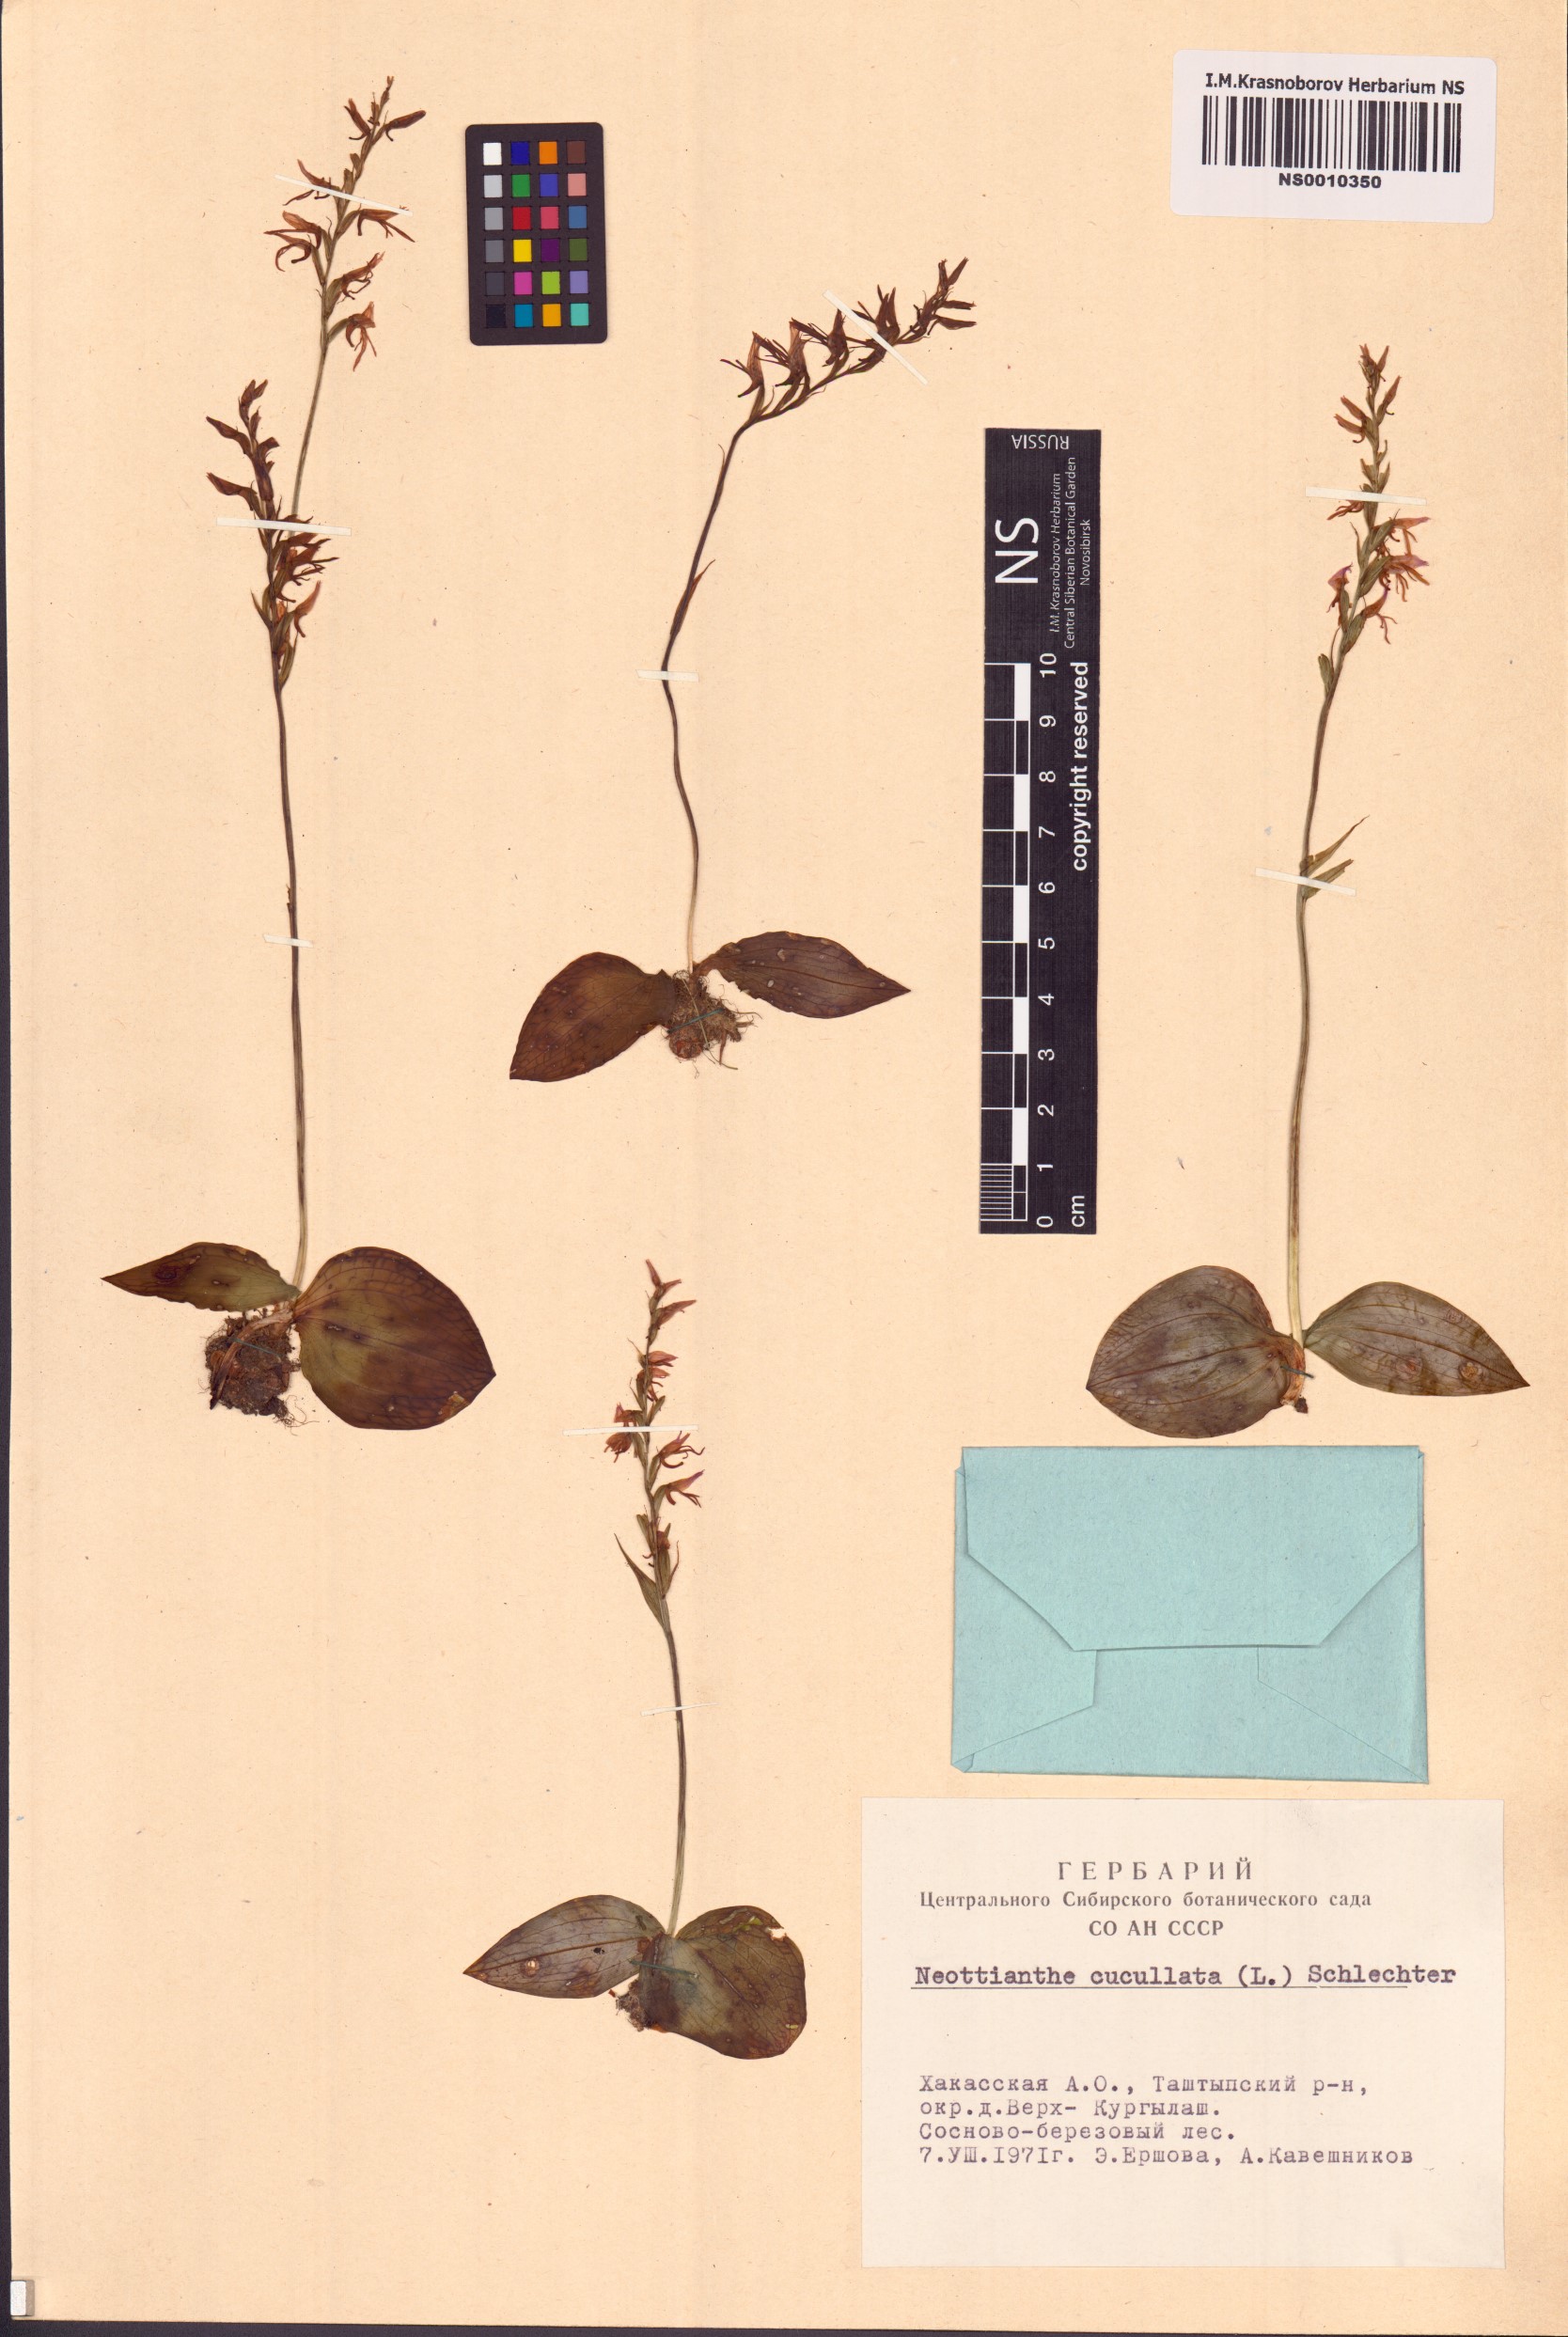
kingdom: Plantae
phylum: Tracheophyta
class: Liliopsida
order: Asparagales
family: Orchidaceae
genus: Hemipilia
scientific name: Hemipilia cucullata
